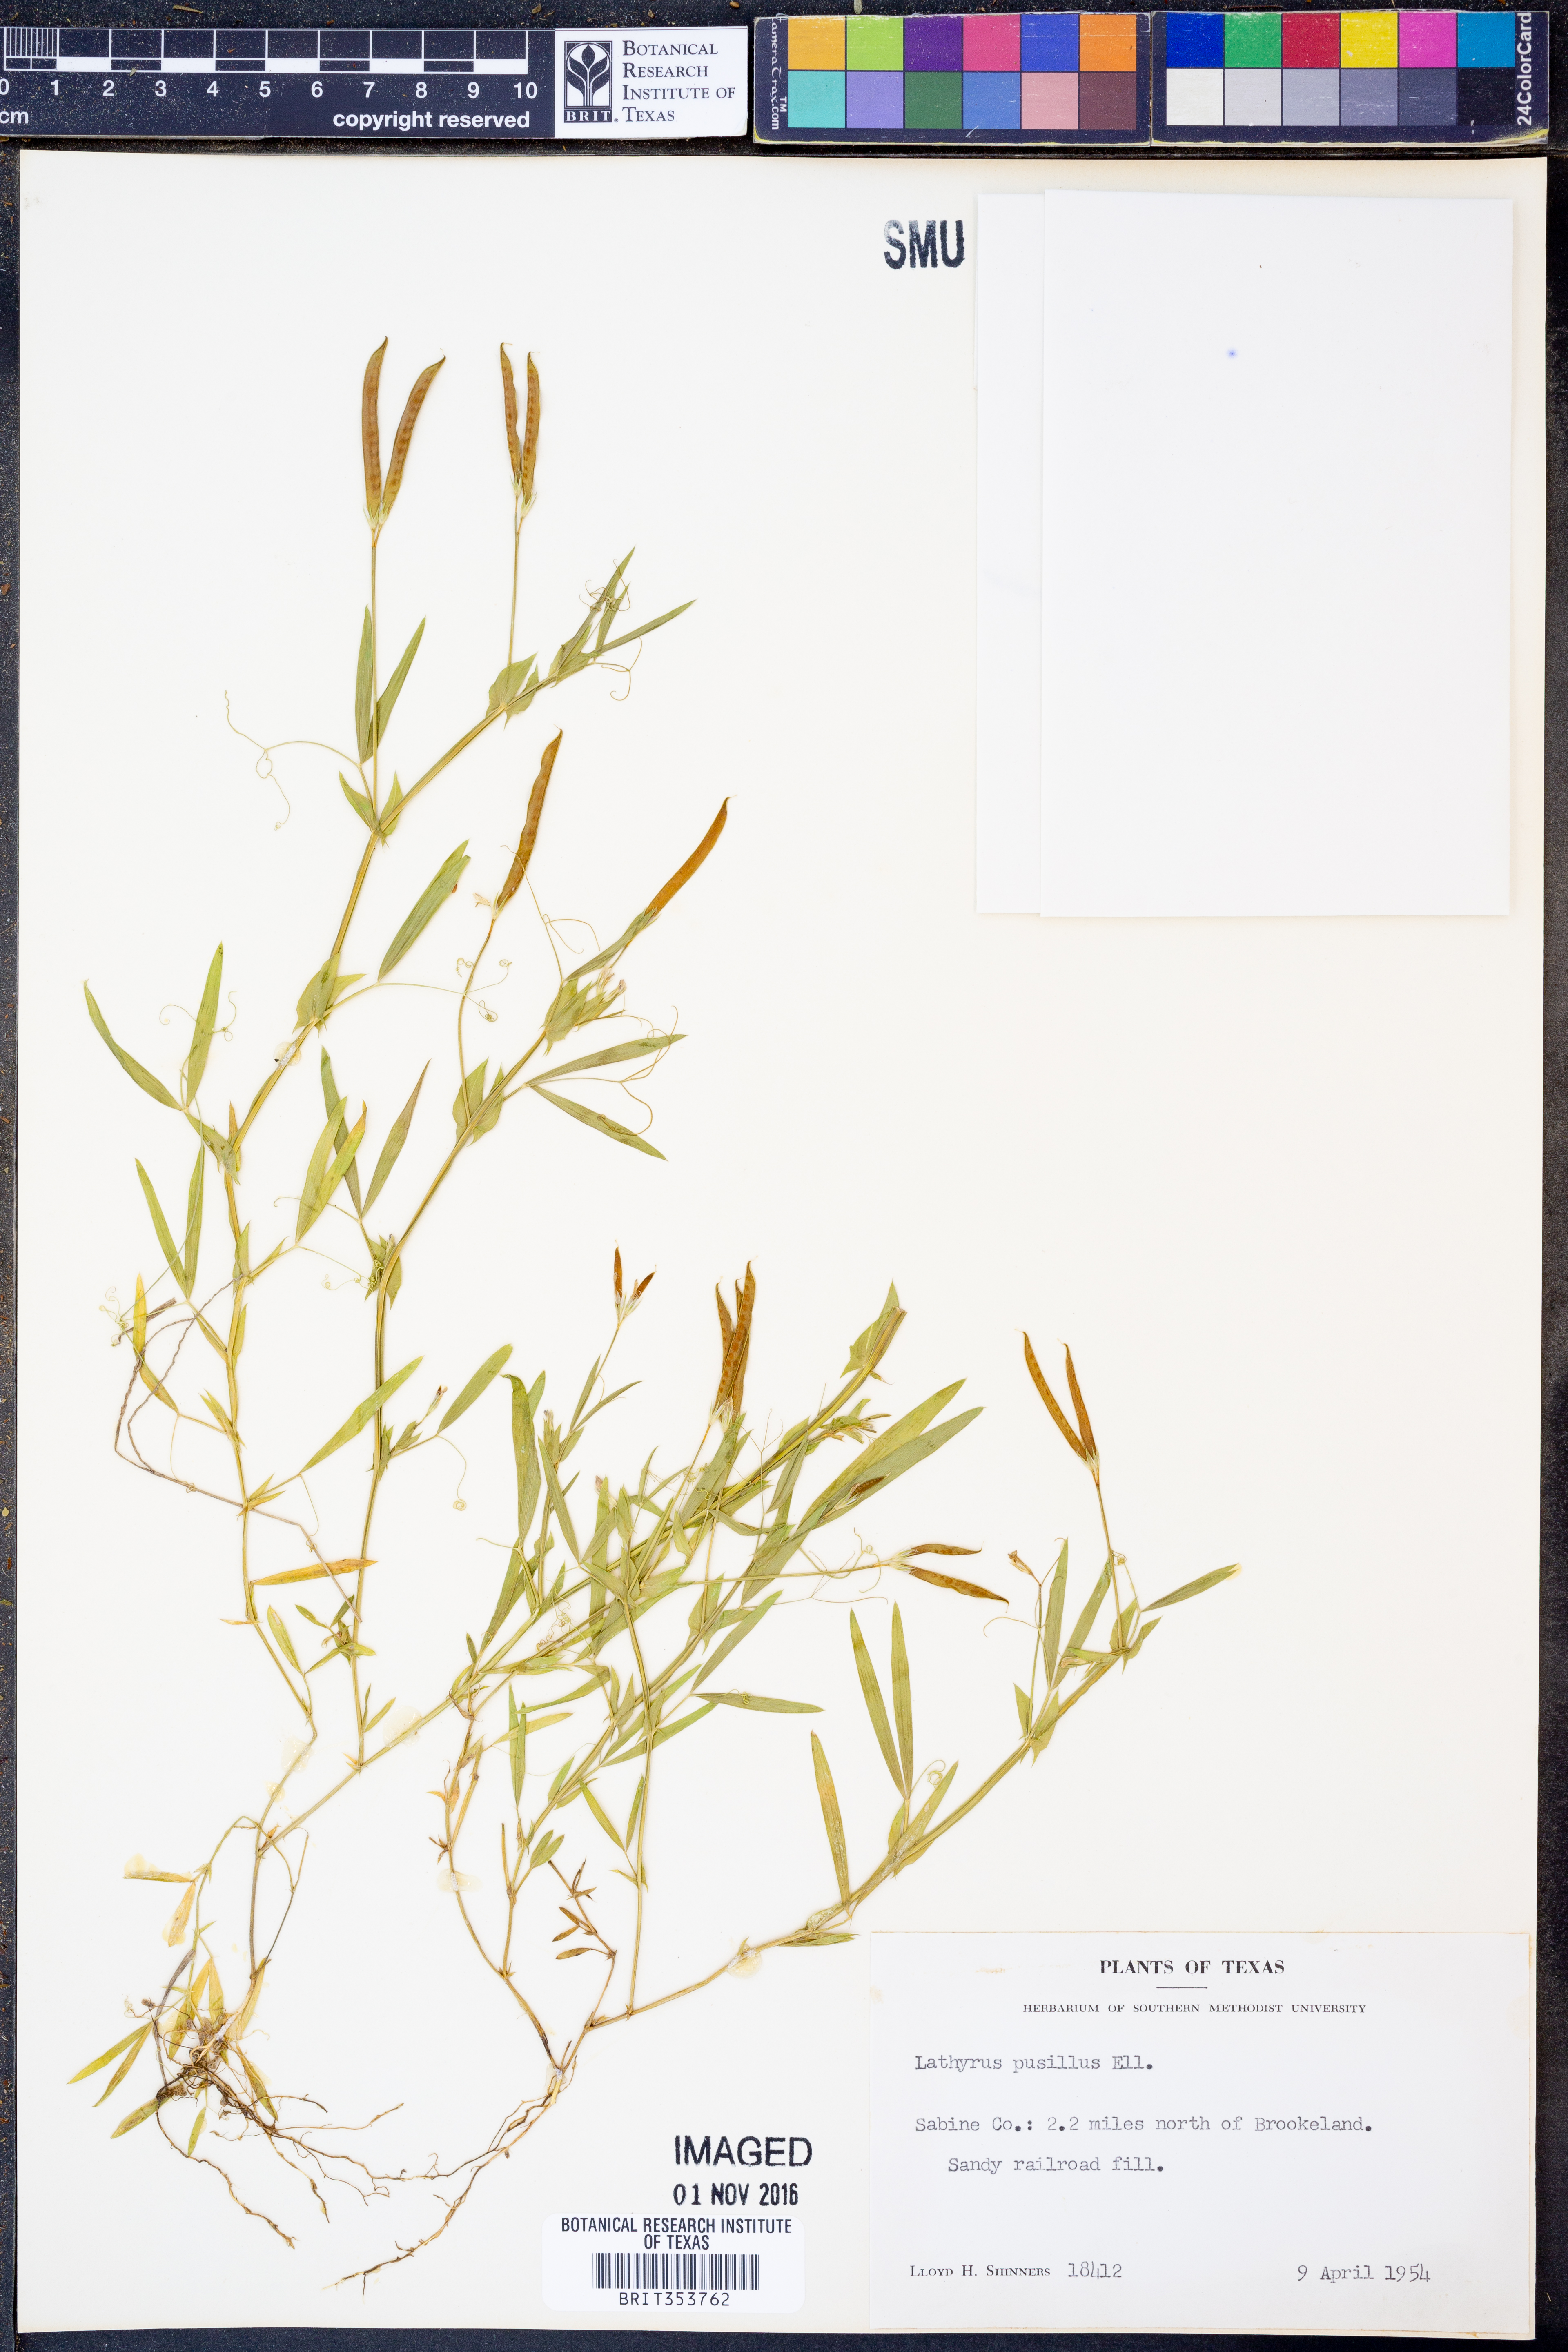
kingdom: Plantae
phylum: Tracheophyta
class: Magnoliopsida
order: Fabales
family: Fabaceae
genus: Lathyrus
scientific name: Lathyrus pusillus
